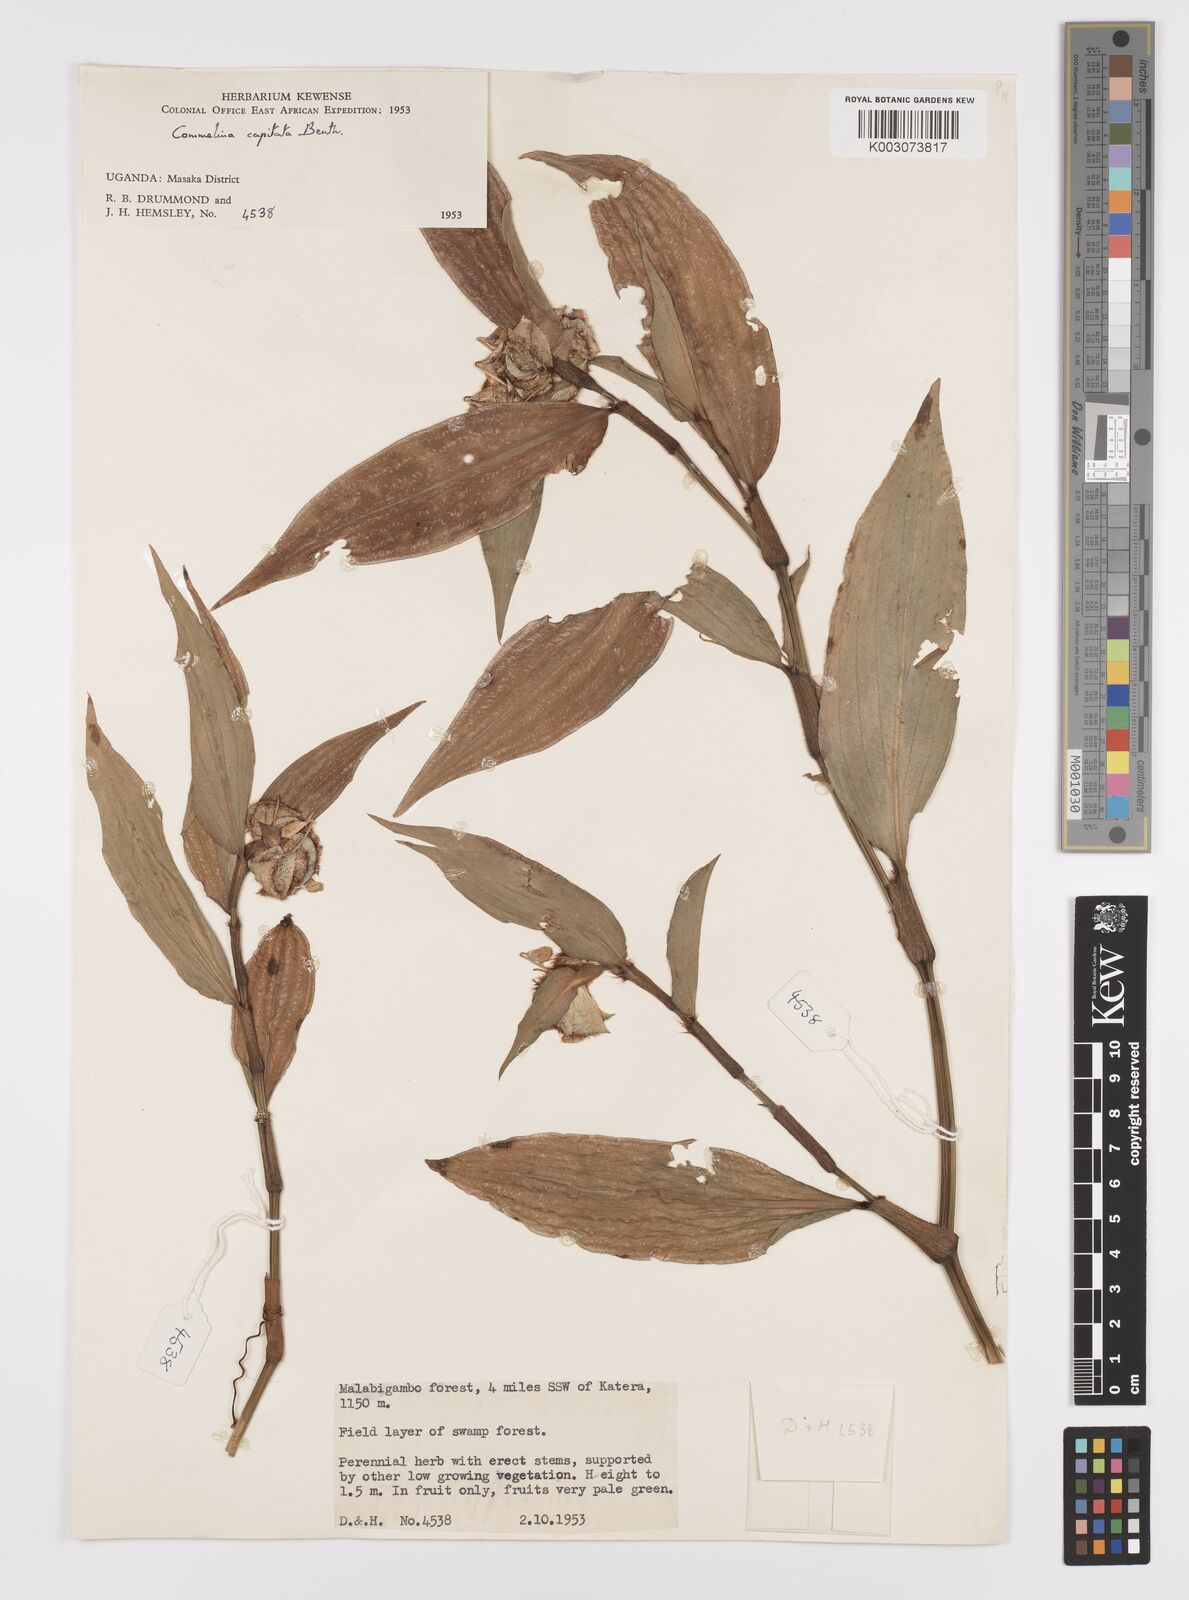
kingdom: Plantae
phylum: Tracheophyta
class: Liliopsida
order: Commelinales
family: Commelinaceae
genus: Commelina
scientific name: Commelina capitata
